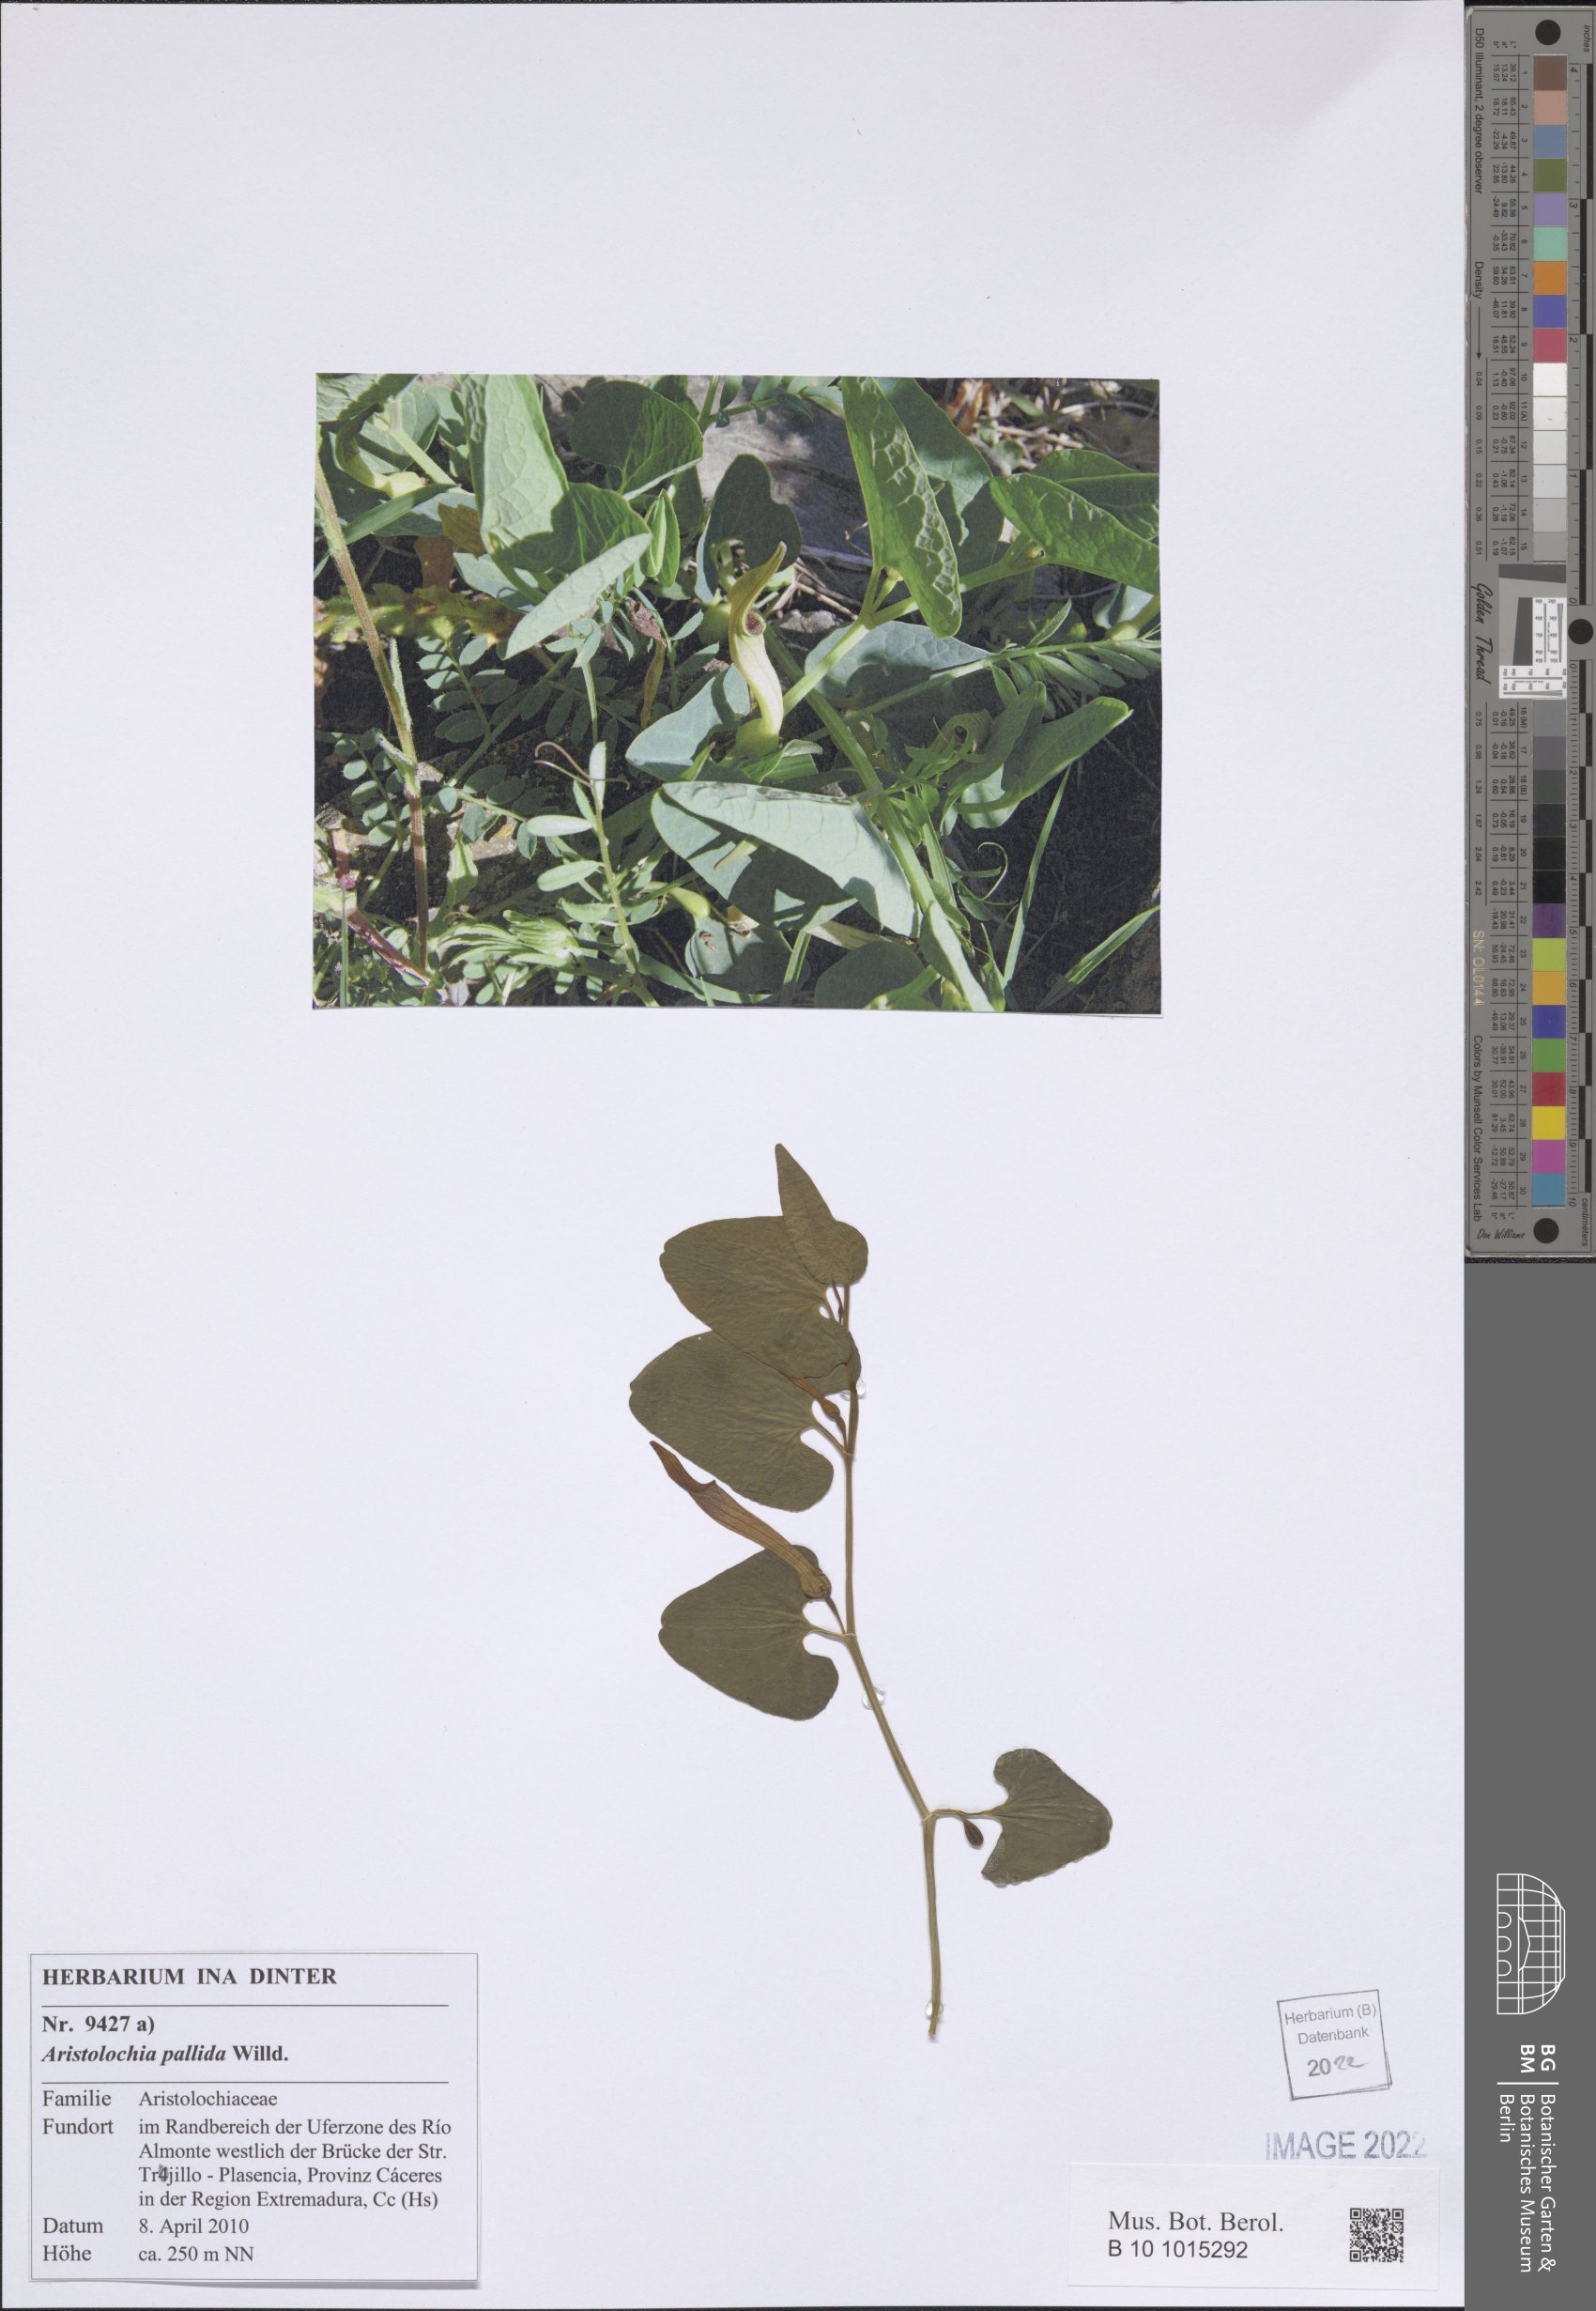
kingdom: Plantae
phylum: Tracheophyta
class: Magnoliopsida
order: Piperales
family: Aristolochiaceae
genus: Aristolochia
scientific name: Aristolochia pallida
